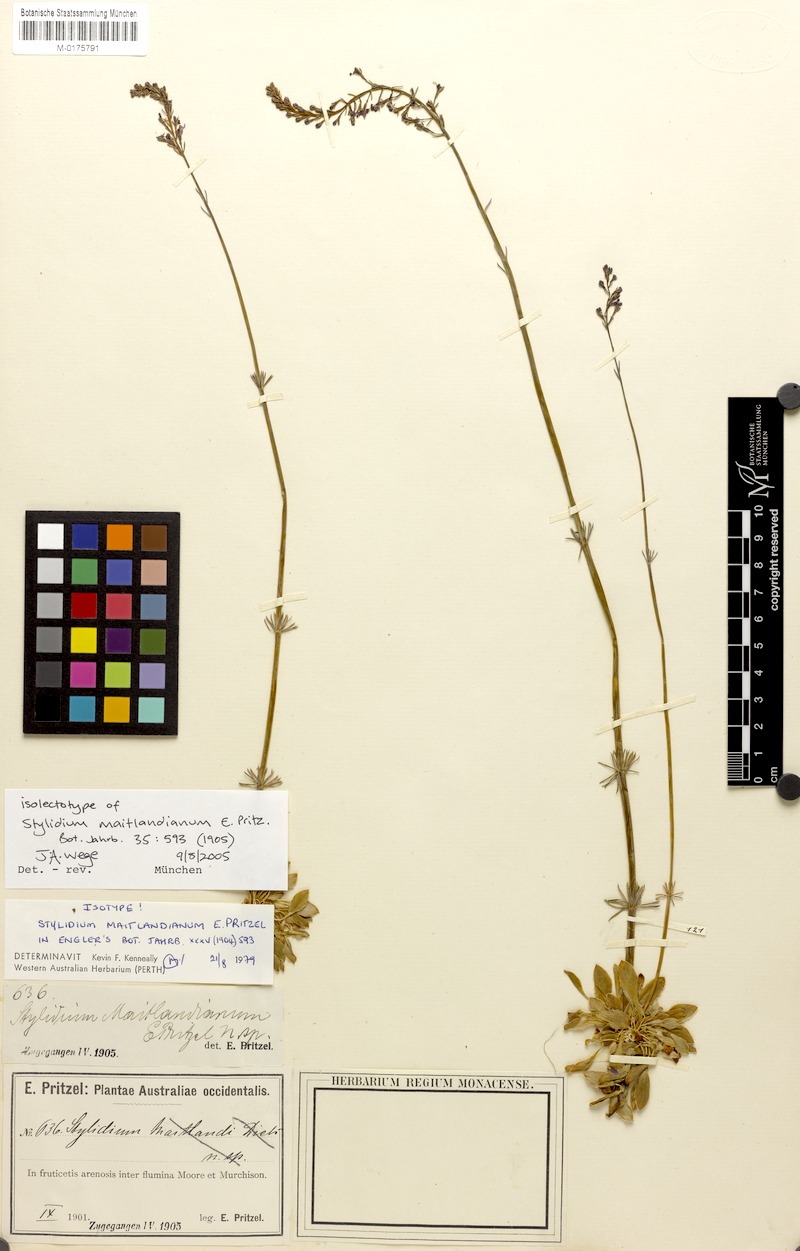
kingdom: Plantae
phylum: Tracheophyta
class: Magnoliopsida
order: Asterales
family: Stylidiaceae
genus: Stylidium
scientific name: Stylidium maitlandianum
